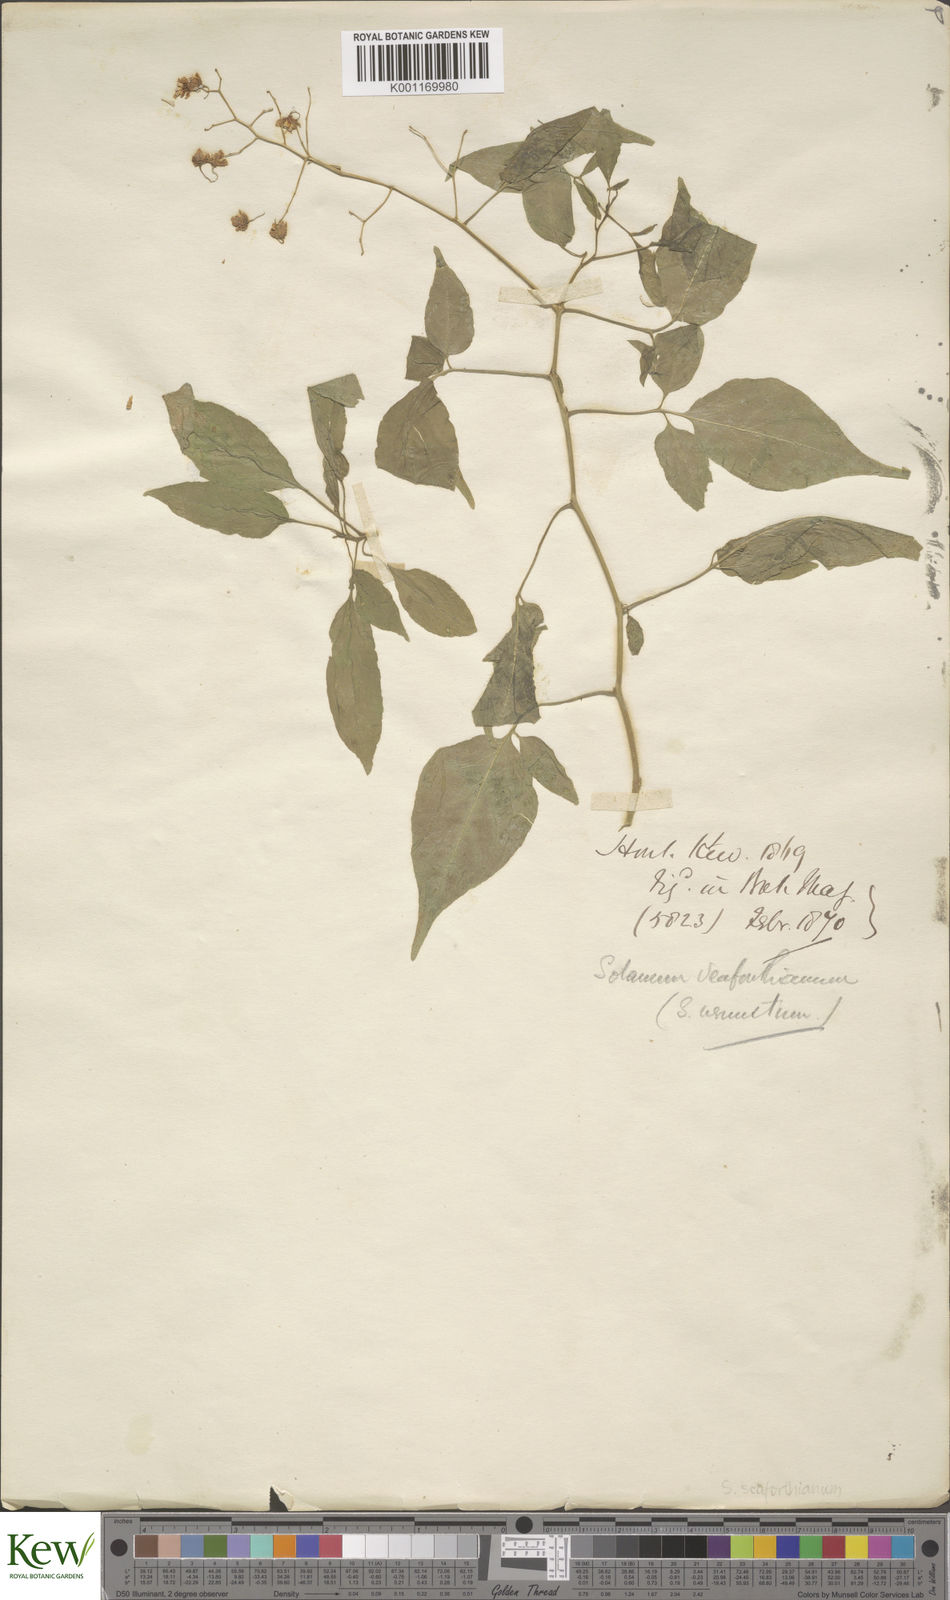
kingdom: Plantae
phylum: Tracheophyta
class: Magnoliopsida
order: Solanales
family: Solanaceae
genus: Solanum
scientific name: Solanum seaforthianum
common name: Brazilian nightshade
